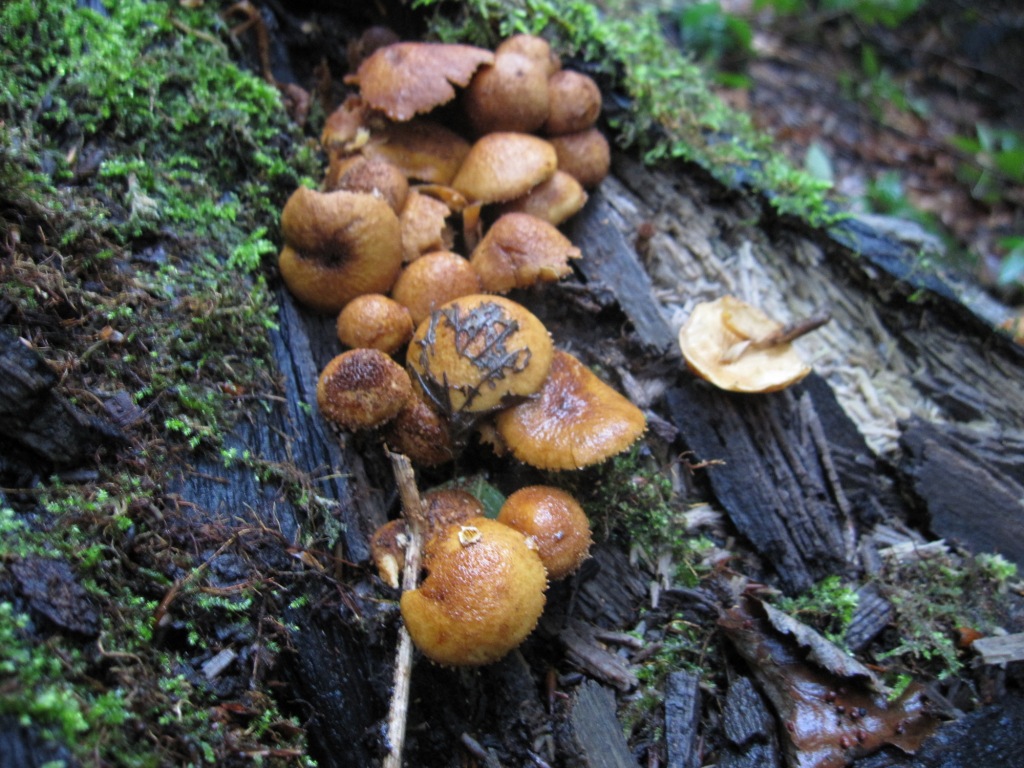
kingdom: Fungi
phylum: Basidiomycota
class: Agaricomycetes
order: Agaricales
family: Tubariaceae
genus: Flammulaster
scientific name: Flammulaster muricatus
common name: pigget grynskælhat
